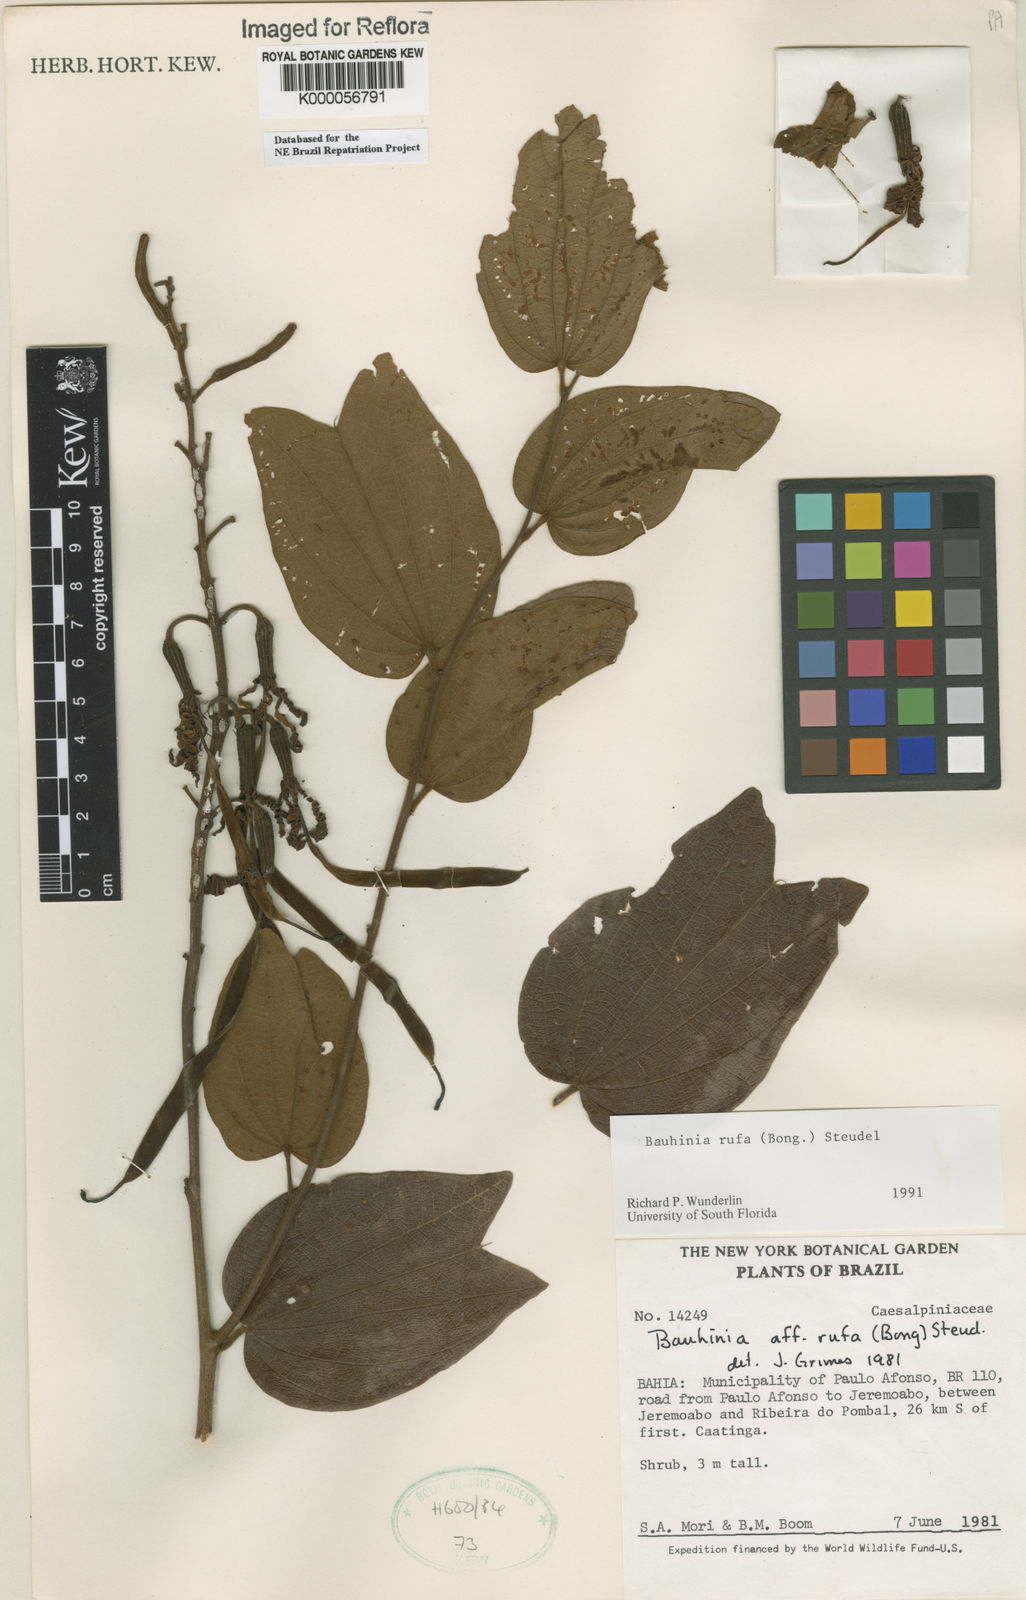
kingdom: Plantae
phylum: Tracheophyta
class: Magnoliopsida
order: Fabales
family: Fabaceae
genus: Bauhinia
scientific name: Bauhinia rufa
